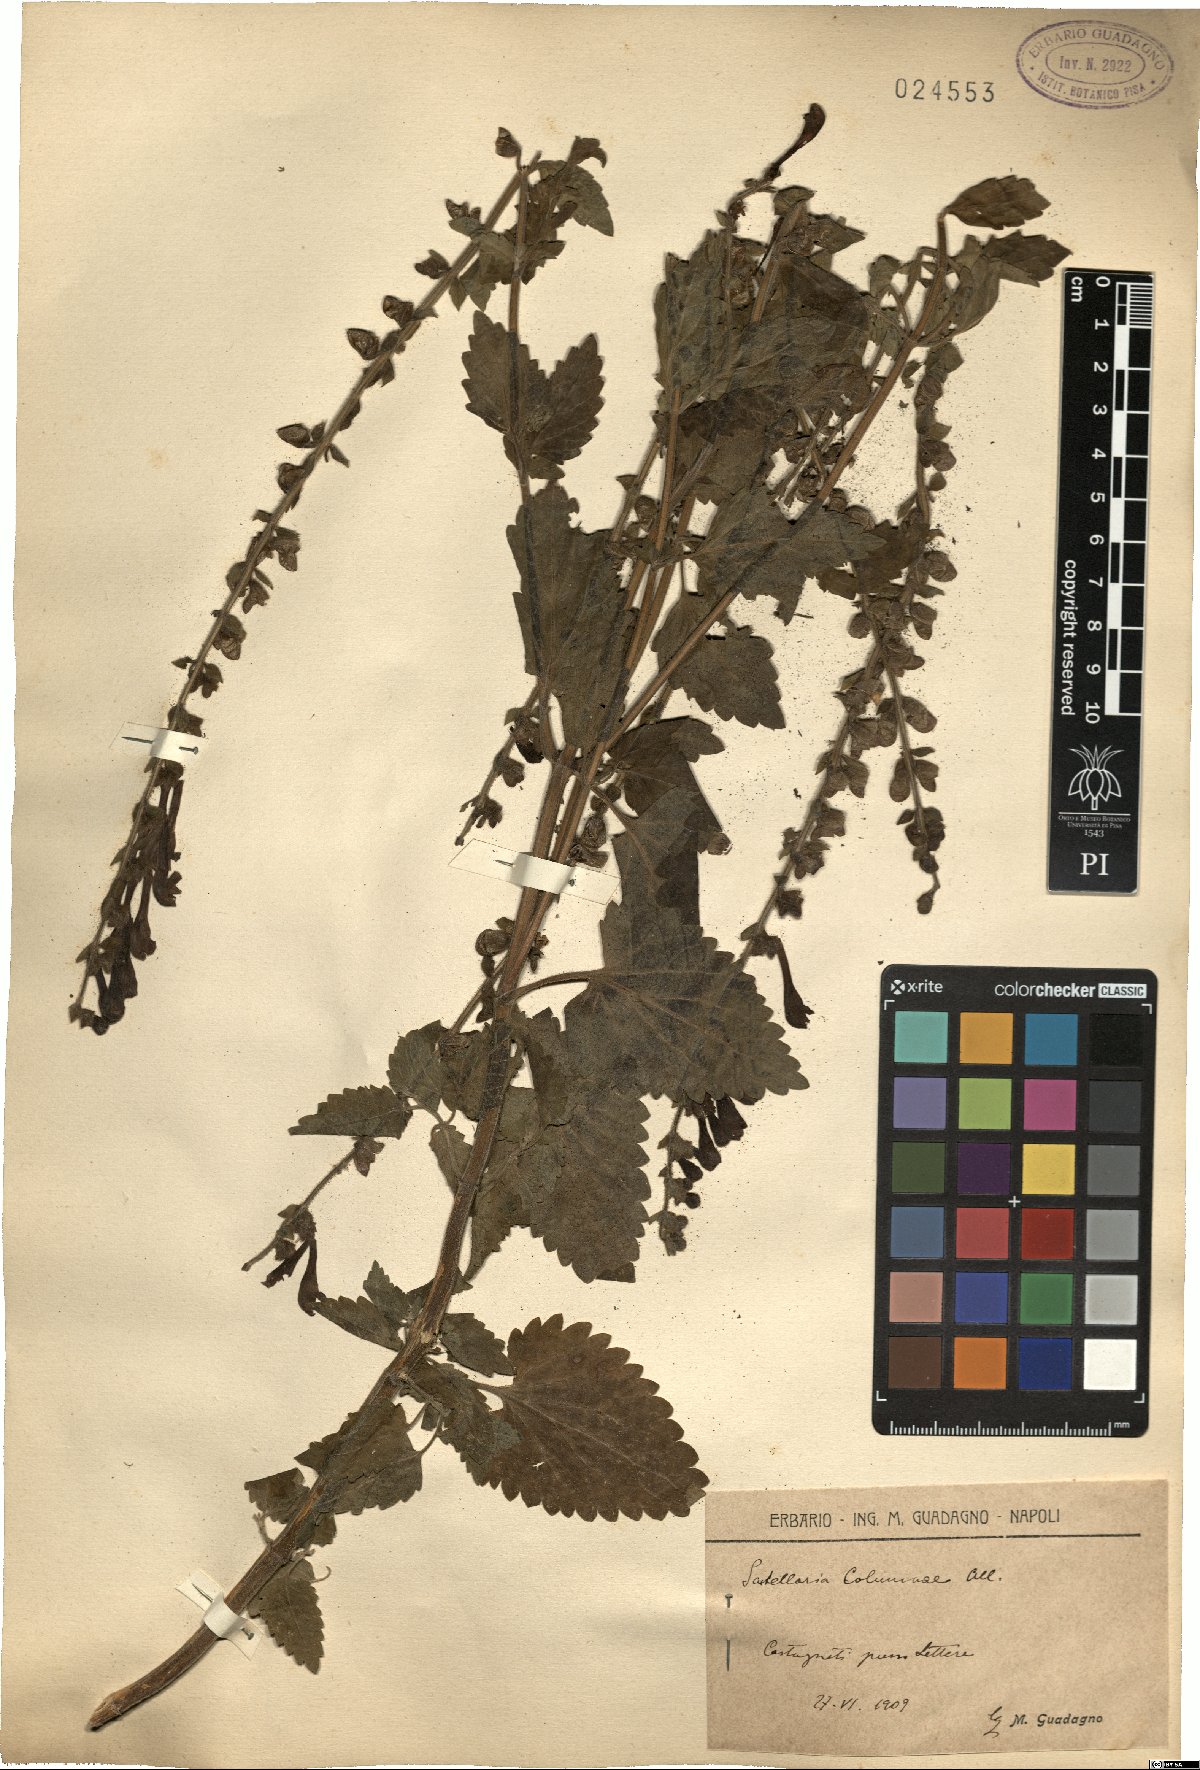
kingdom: Plantae
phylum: Tracheophyta
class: Magnoliopsida
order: Lamiales
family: Lamiaceae
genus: Scutellaria
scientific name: Scutellaria columnae
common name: Large skullcap
